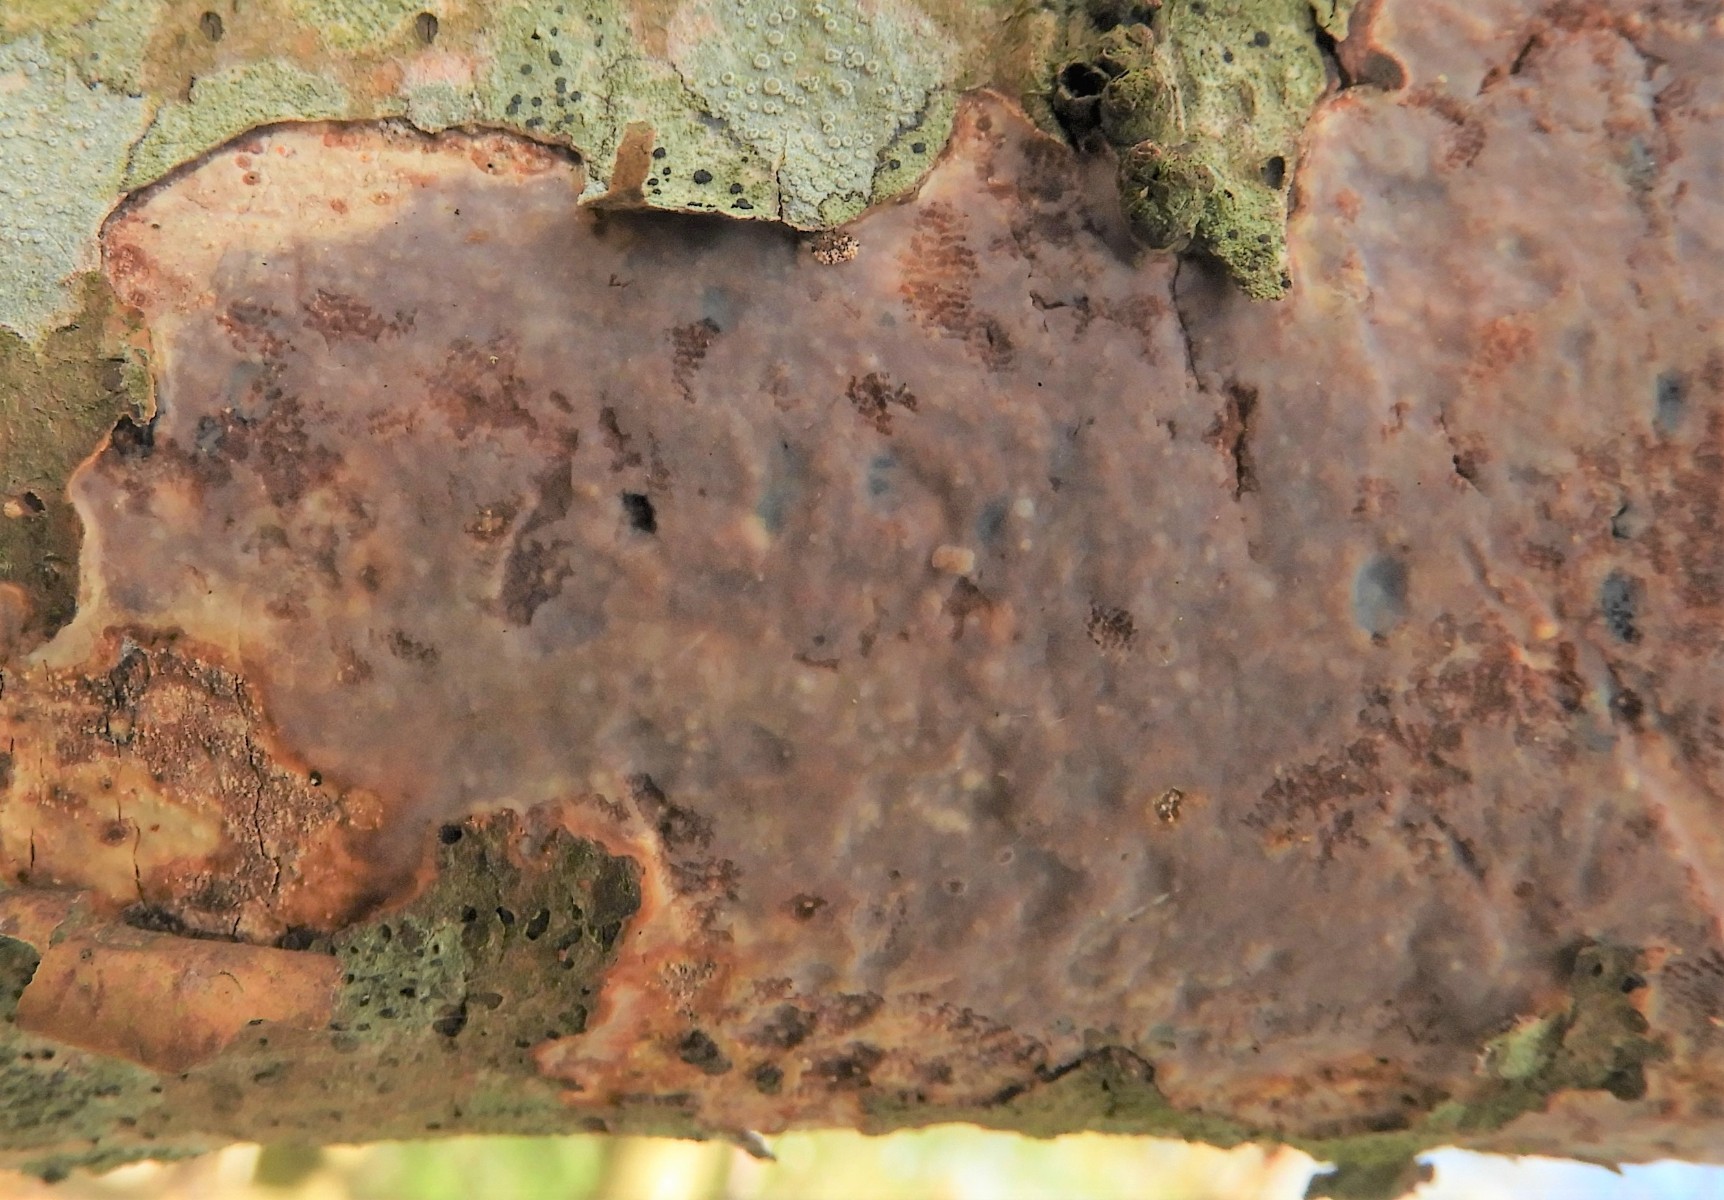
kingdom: Fungi
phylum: Basidiomycota
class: Agaricomycetes
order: Corticiales
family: Vuilleminiaceae
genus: Vuilleminia
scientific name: Vuilleminia comedens
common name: almindelig barksprænger
